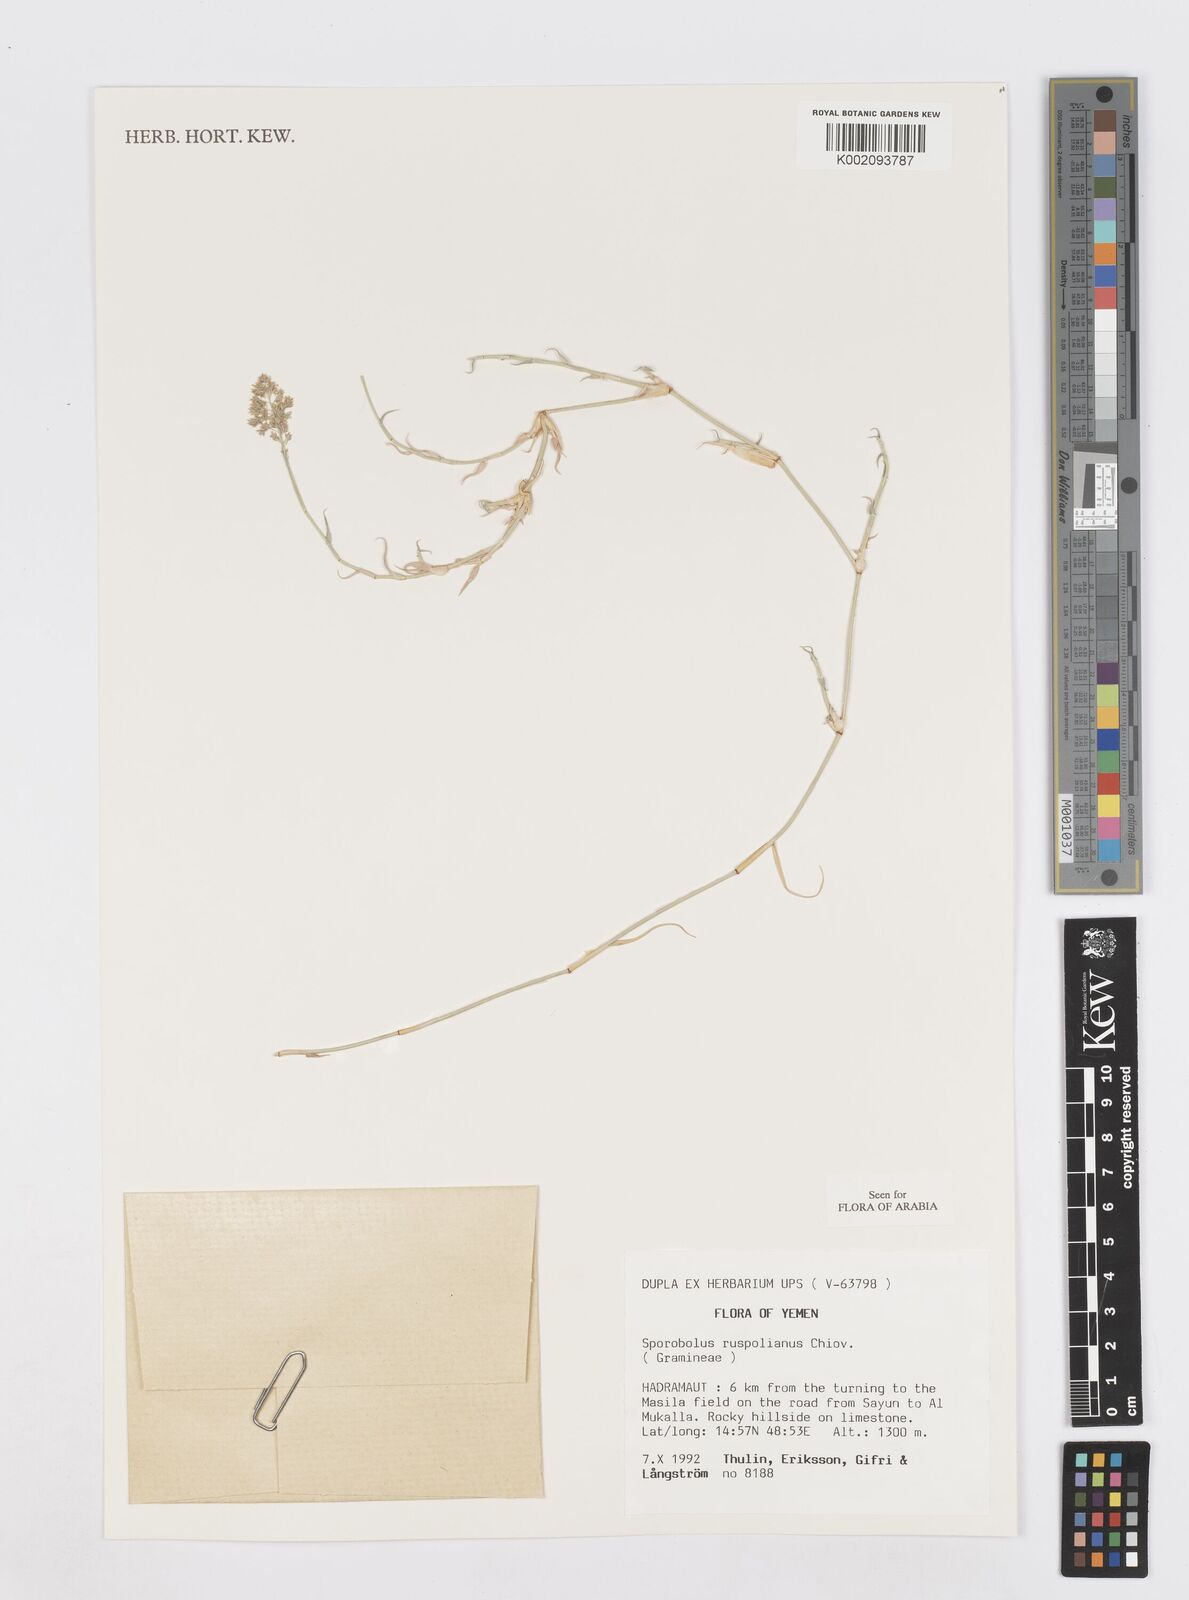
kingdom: Plantae
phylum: Tracheophyta
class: Liliopsida
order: Poales
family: Poaceae
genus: Sporobolus
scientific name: Sporobolus ruspolianus
